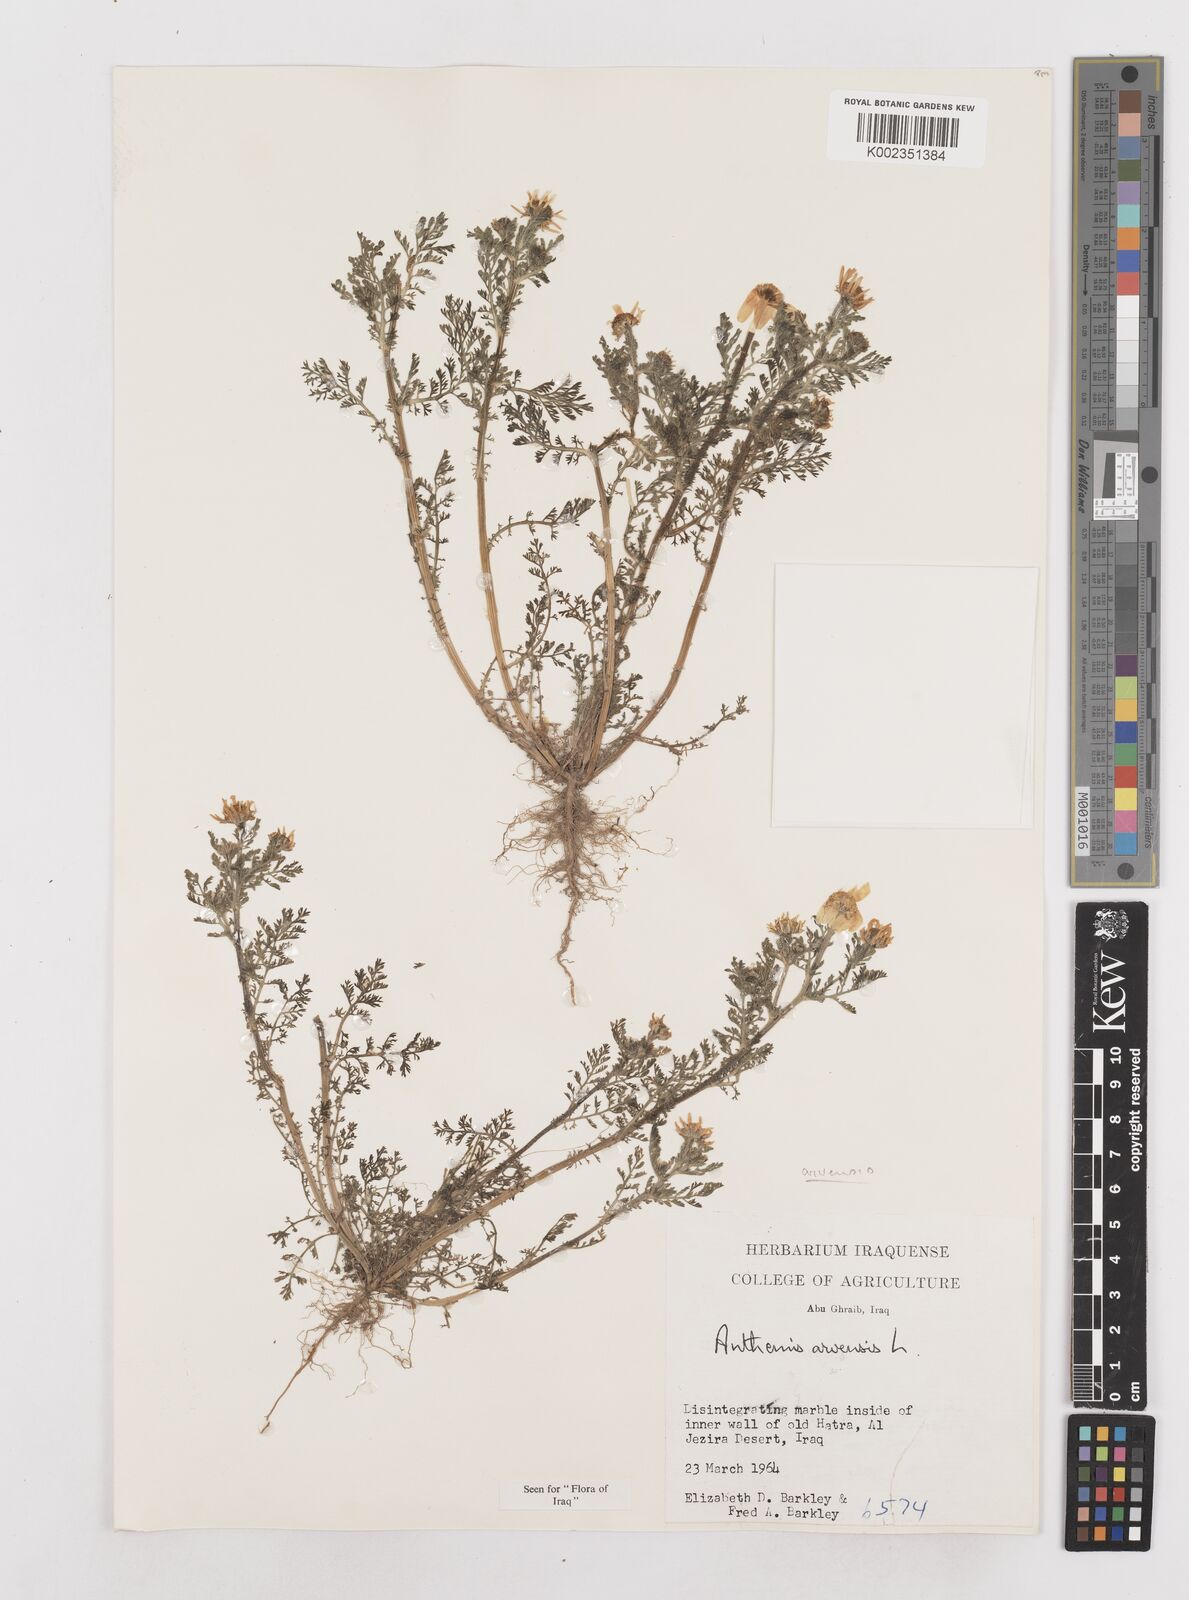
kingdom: Plantae
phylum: Tracheophyta
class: Magnoliopsida
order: Asterales
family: Asteraceae
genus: Anthemis
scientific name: Anthemis arvensis
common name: Corn chamomile
